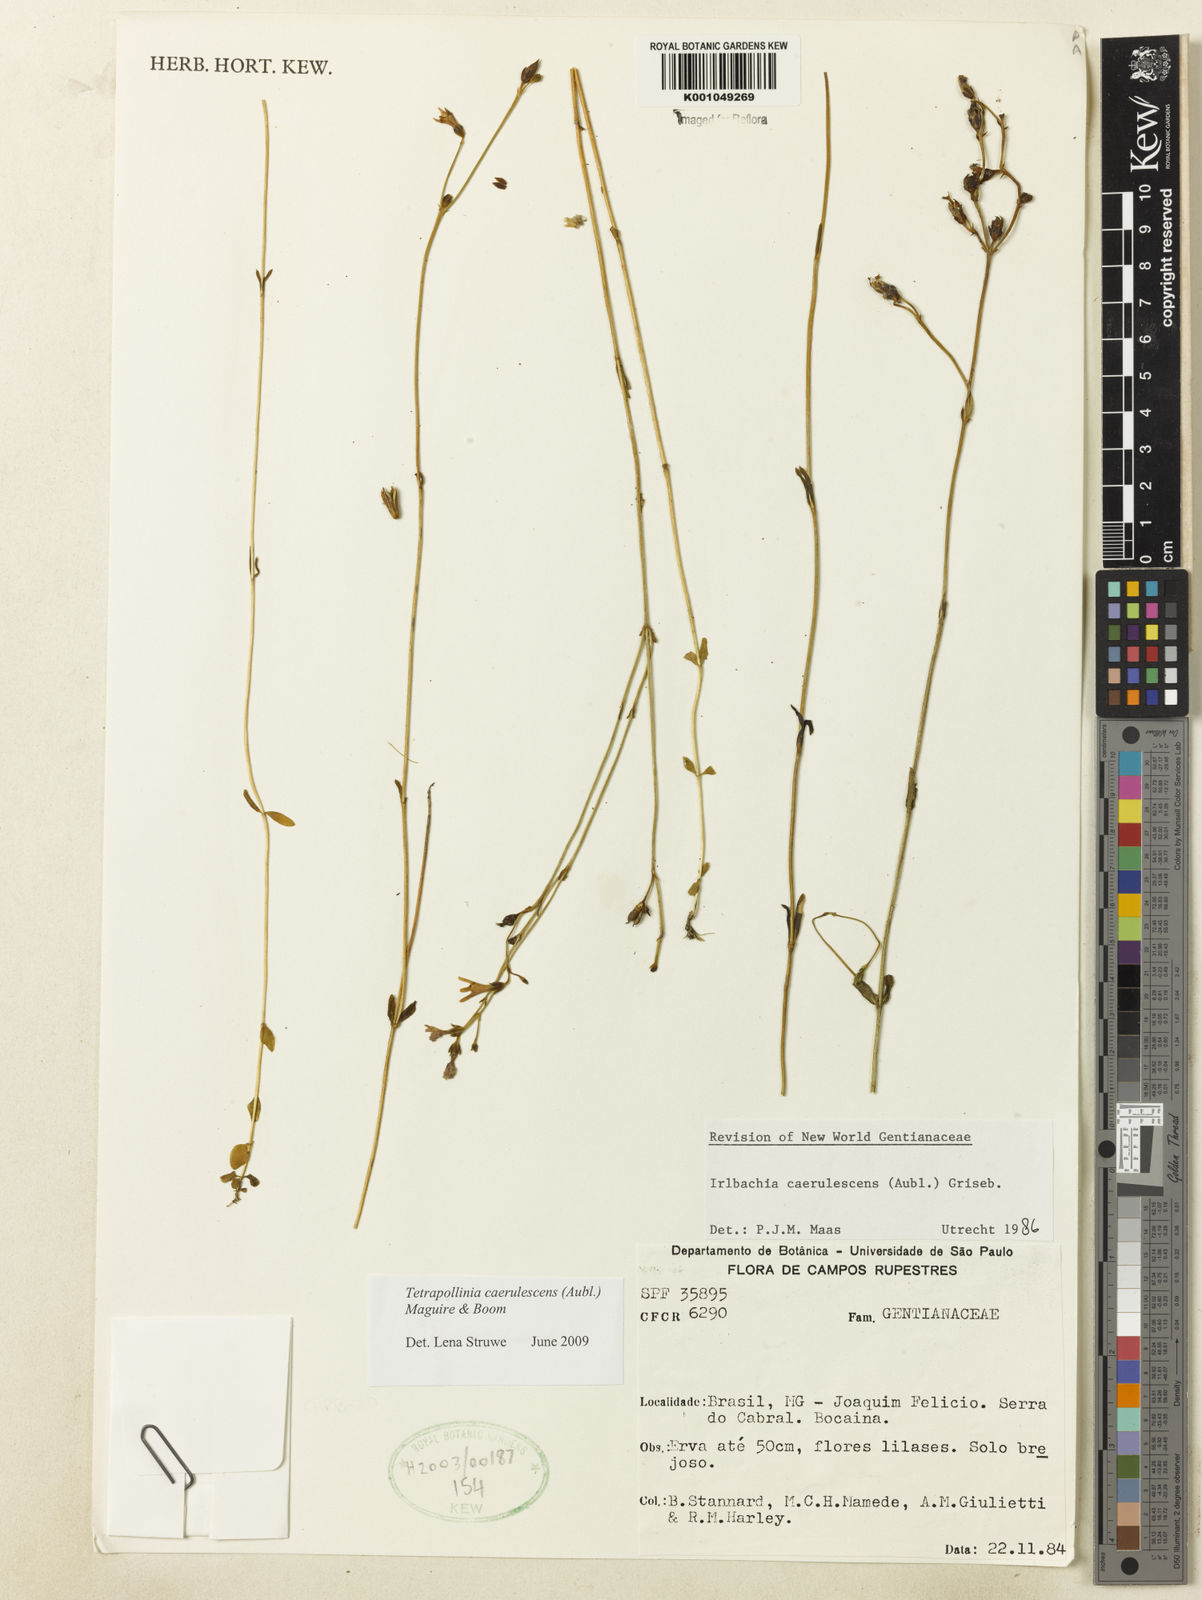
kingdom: Plantae
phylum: Tracheophyta
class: Magnoliopsida
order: Gentianales
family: Gentianaceae
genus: Tetrapollinia
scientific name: Tetrapollinia caerulescens
